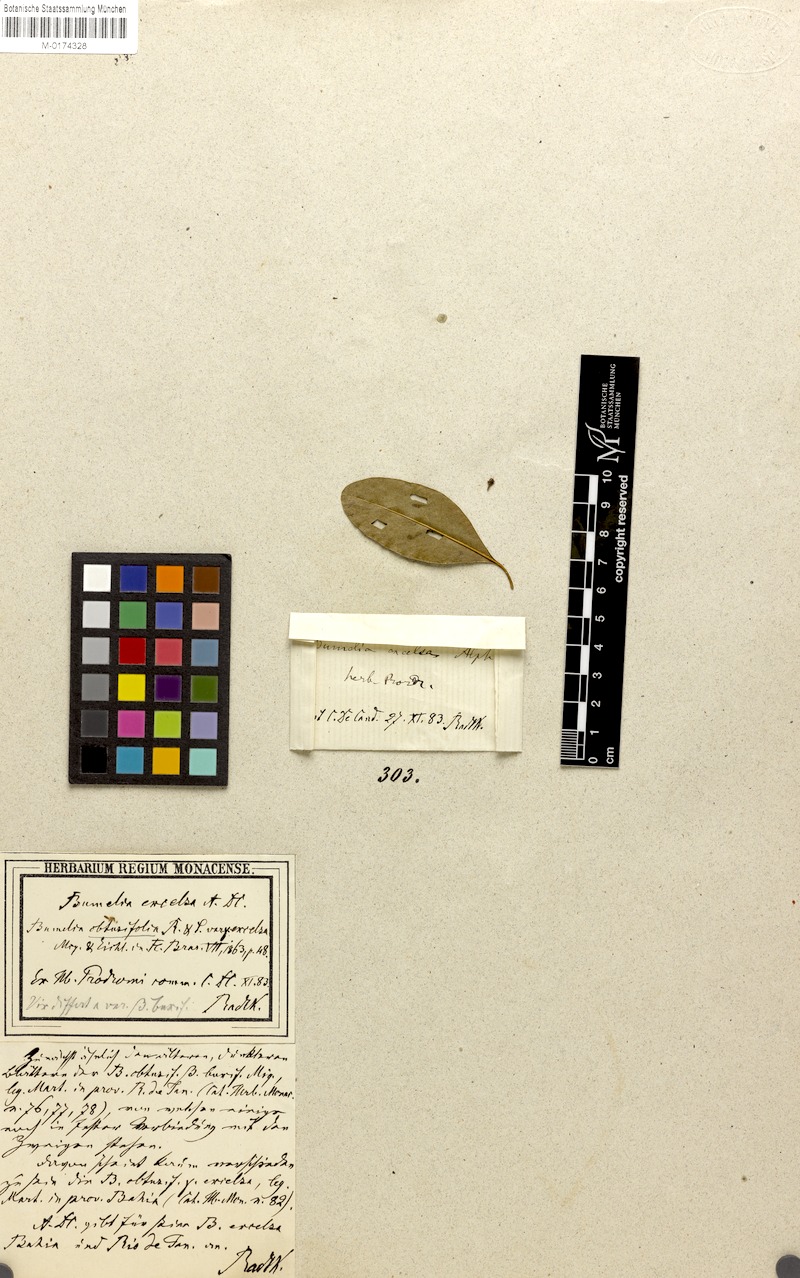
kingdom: Plantae
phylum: Tracheophyta
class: Magnoliopsida
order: Ericales
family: Sapotaceae
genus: Sideroxylon
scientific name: Sideroxylon obtusifolium
